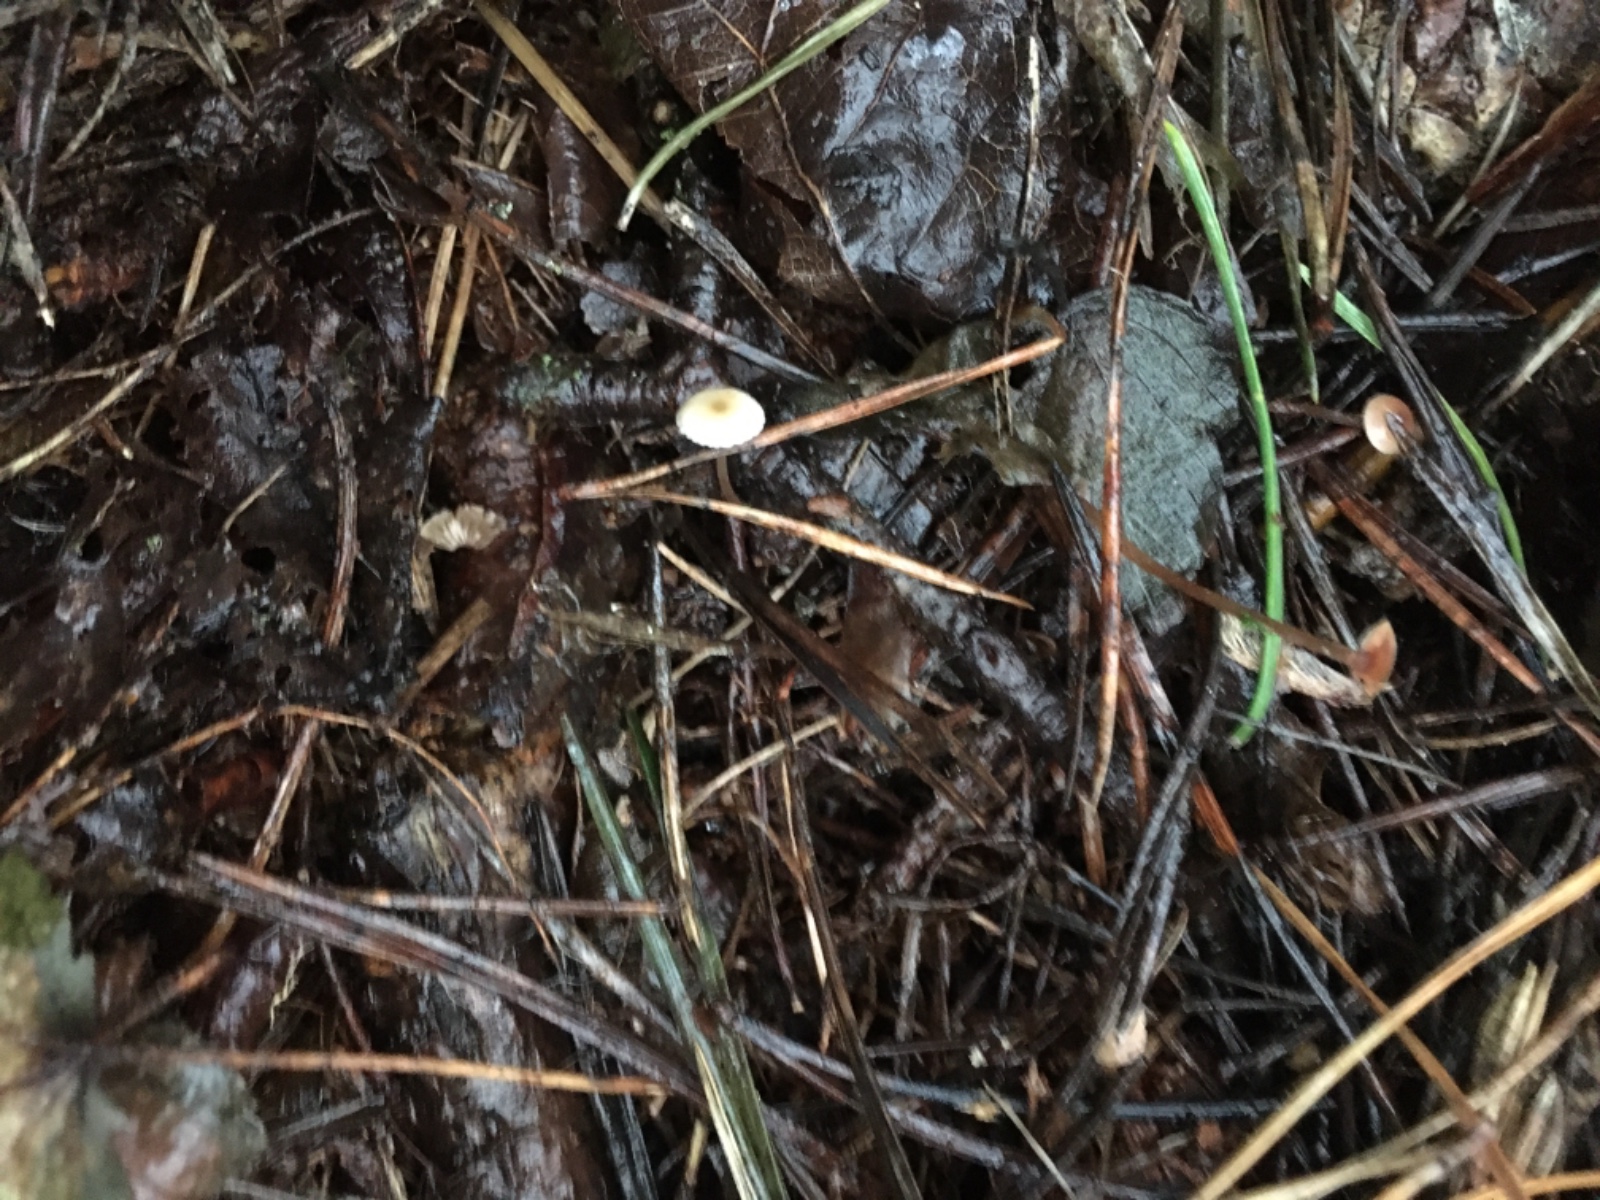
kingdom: Fungi
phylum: Basidiomycota
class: Agaricomycetes
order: Agaricales
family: Physalacriaceae
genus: Strobilurus
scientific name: Strobilurus
